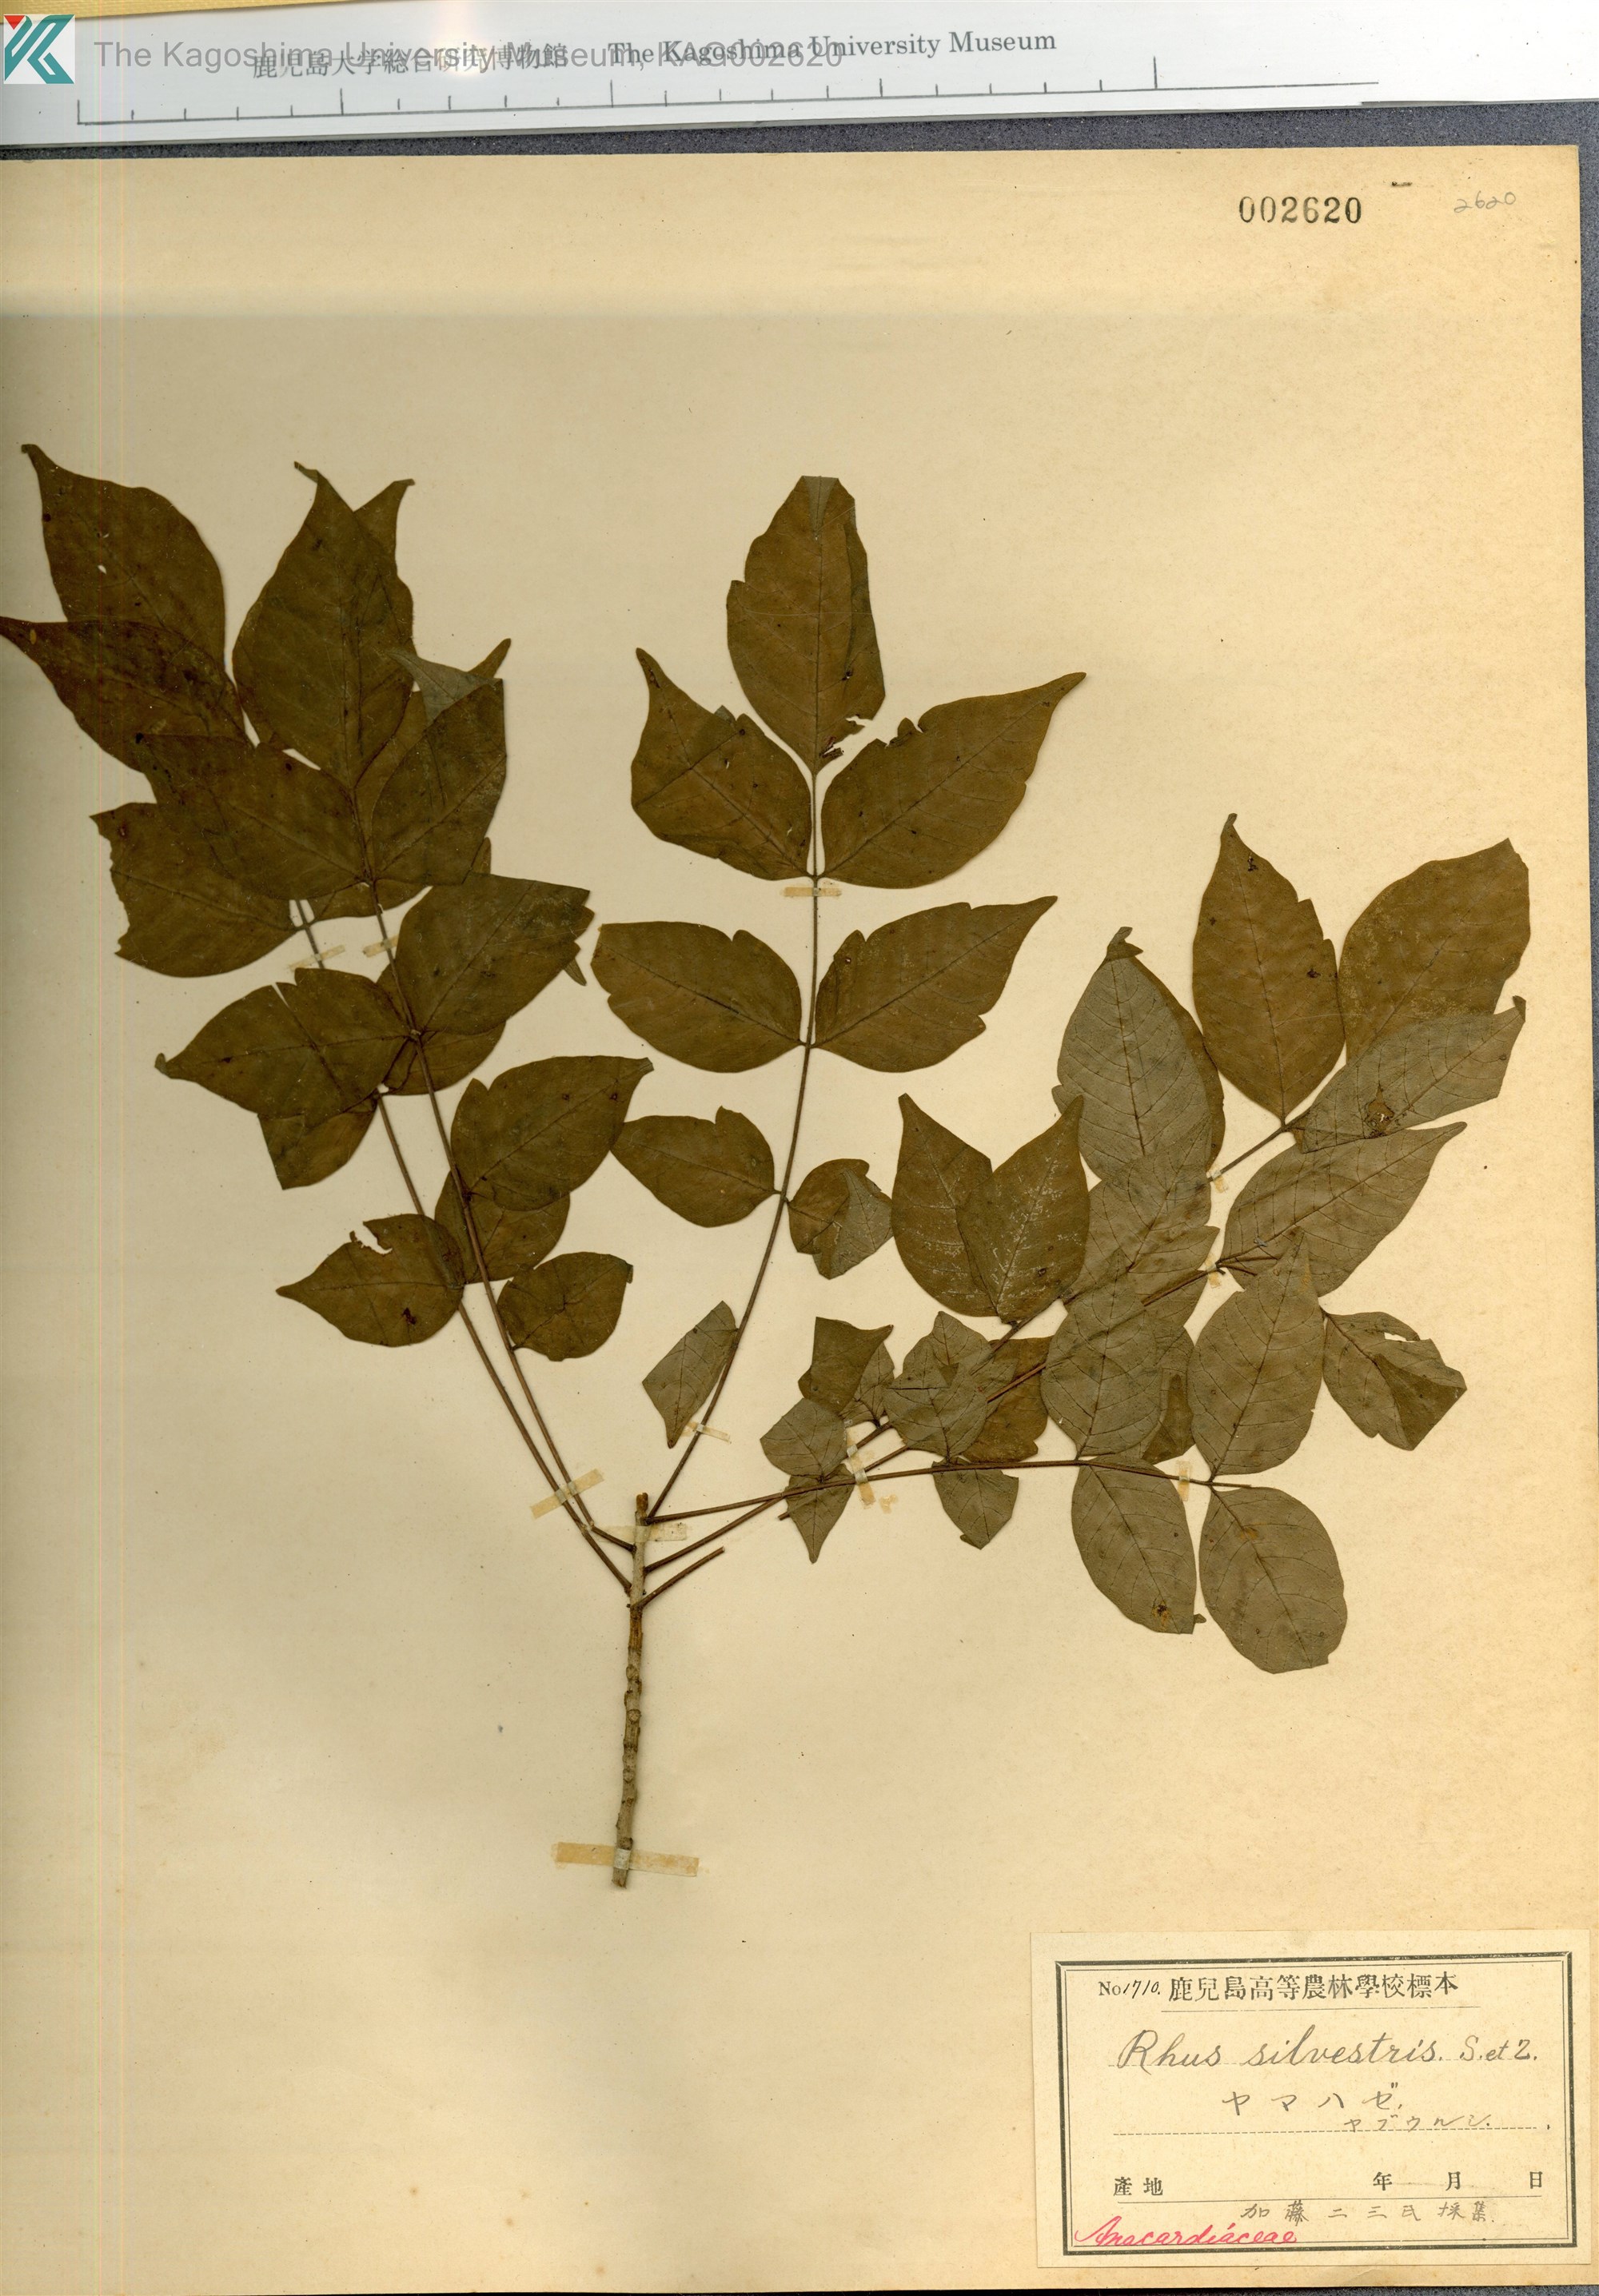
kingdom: Plantae
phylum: Tracheophyta
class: Magnoliopsida
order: Sapindales
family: Anacardiaceae
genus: Toxicodendron
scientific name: Toxicodendron sylvestre
